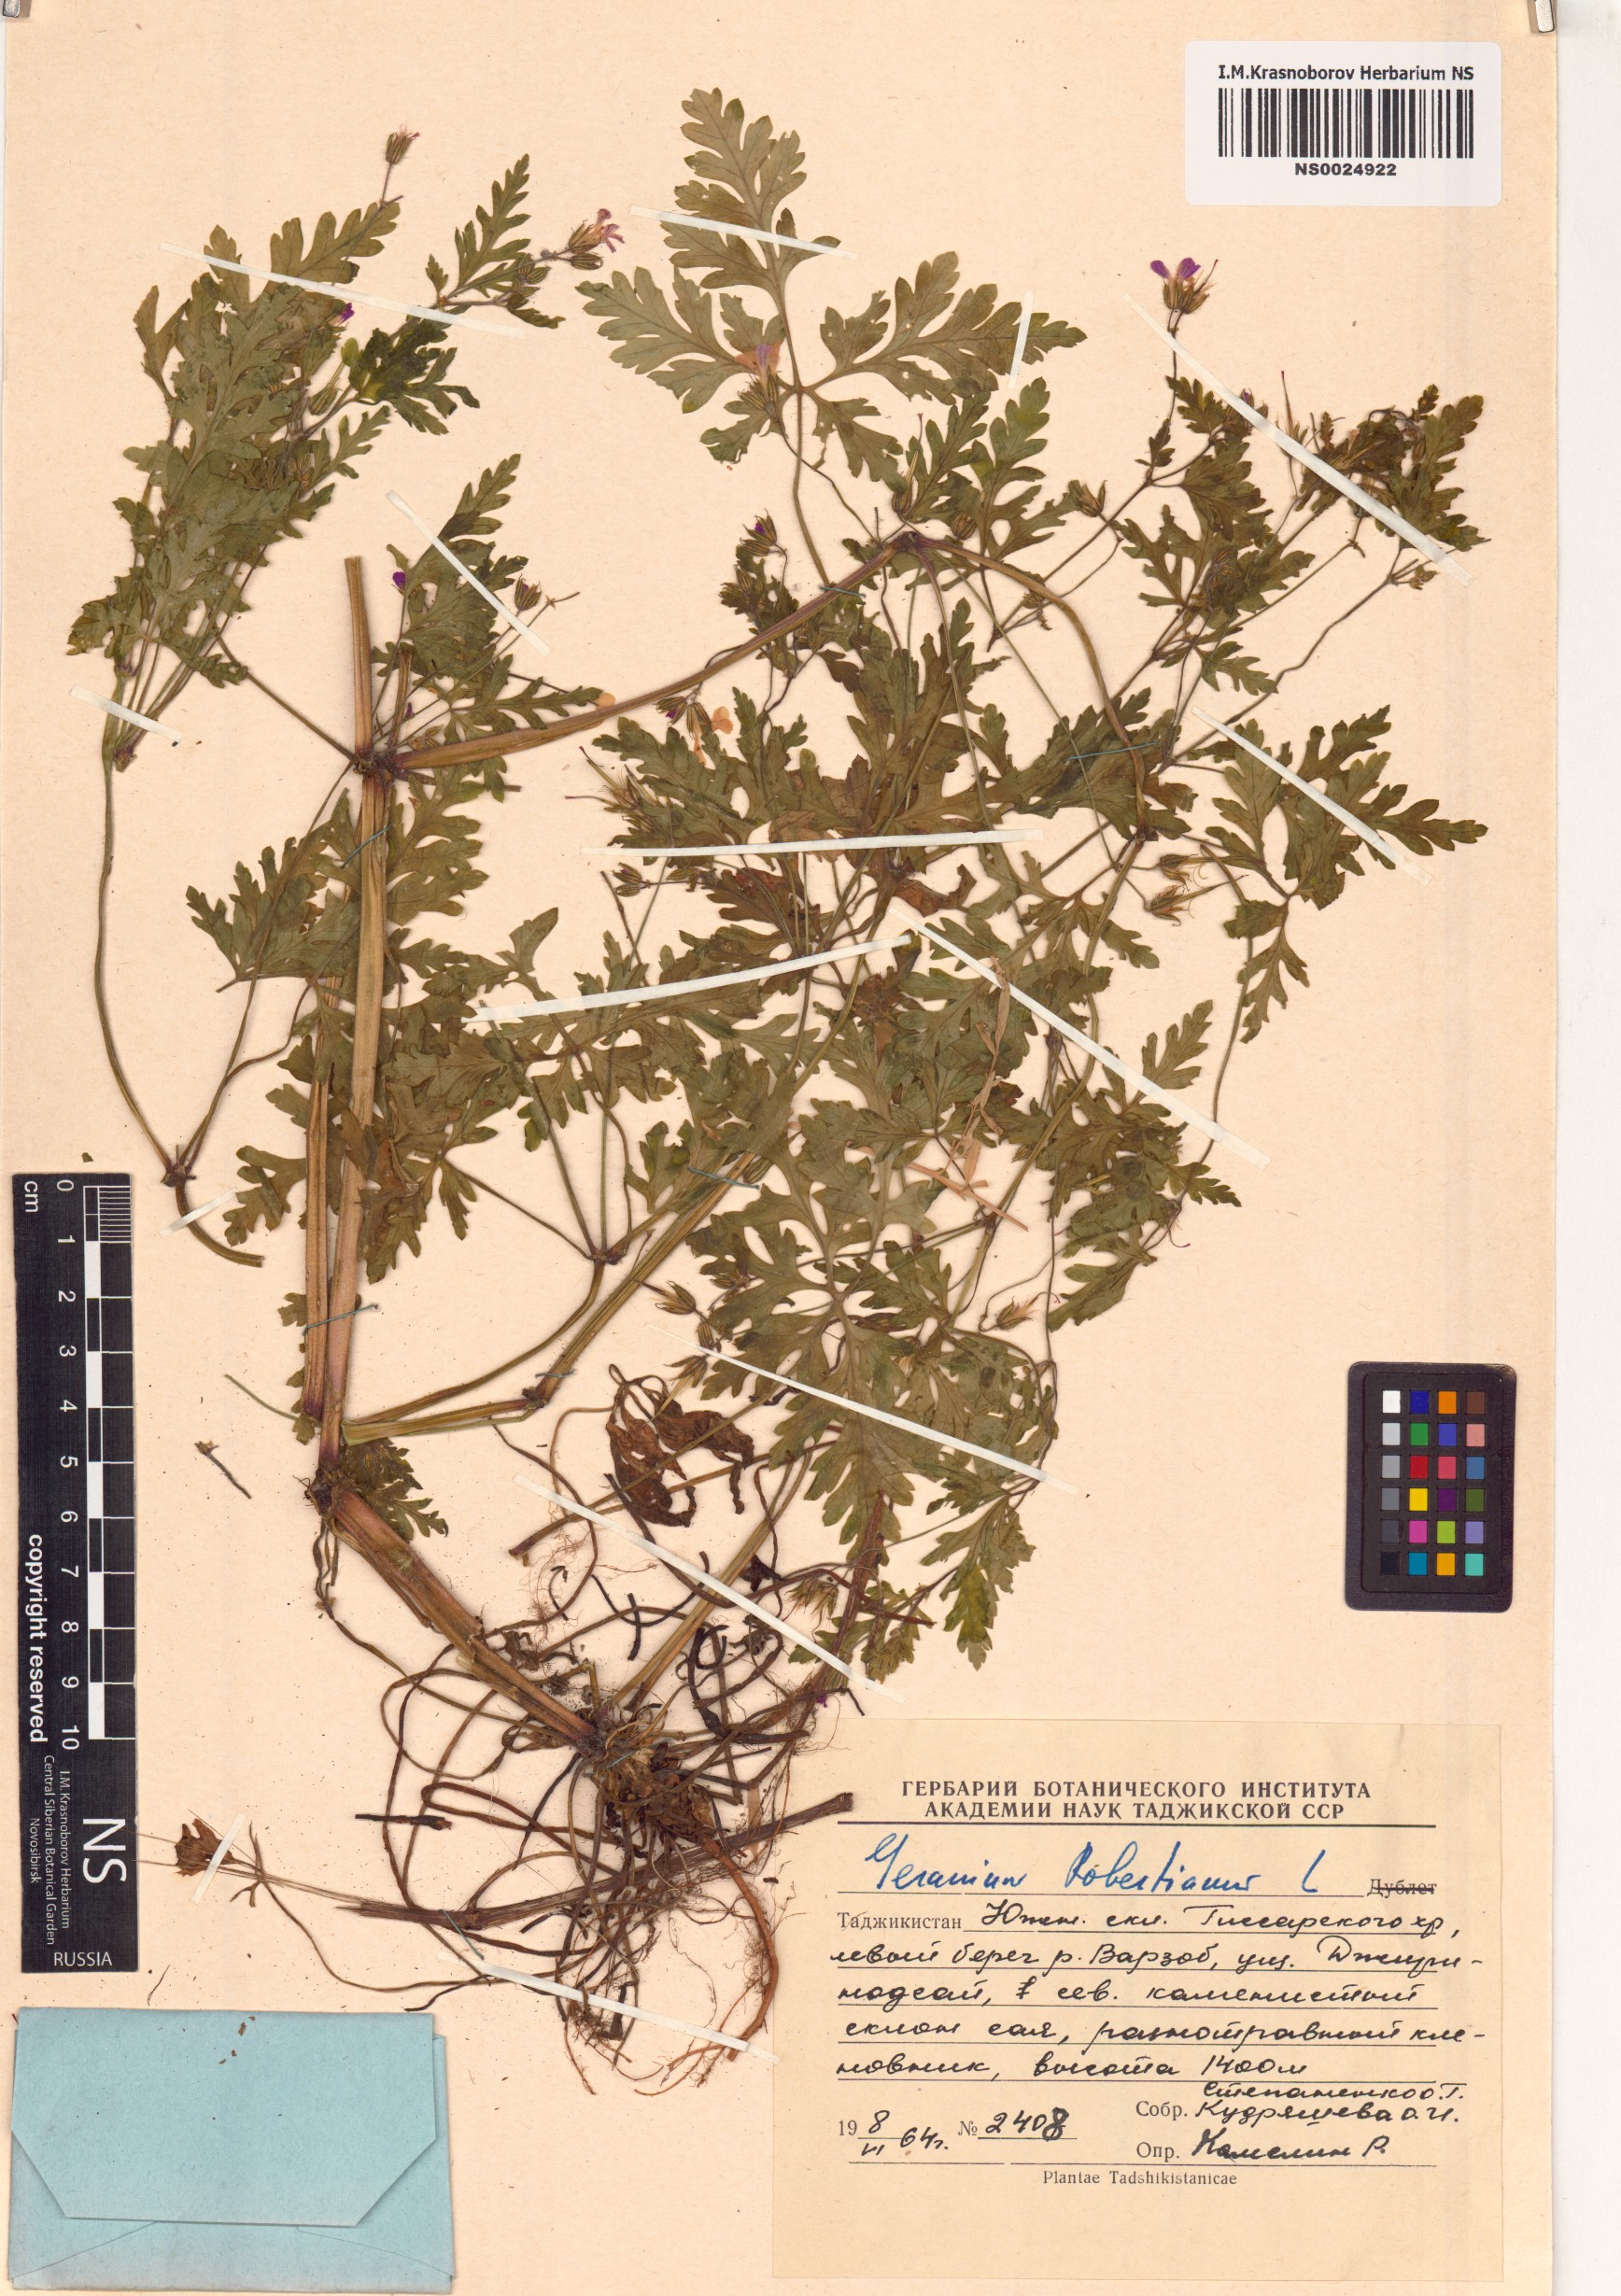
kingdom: Plantae
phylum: Tracheophyta
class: Magnoliopsida
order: Geraniales
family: Geraniaceae
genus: Geranium
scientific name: Geranium robertianum
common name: Herb-robert
